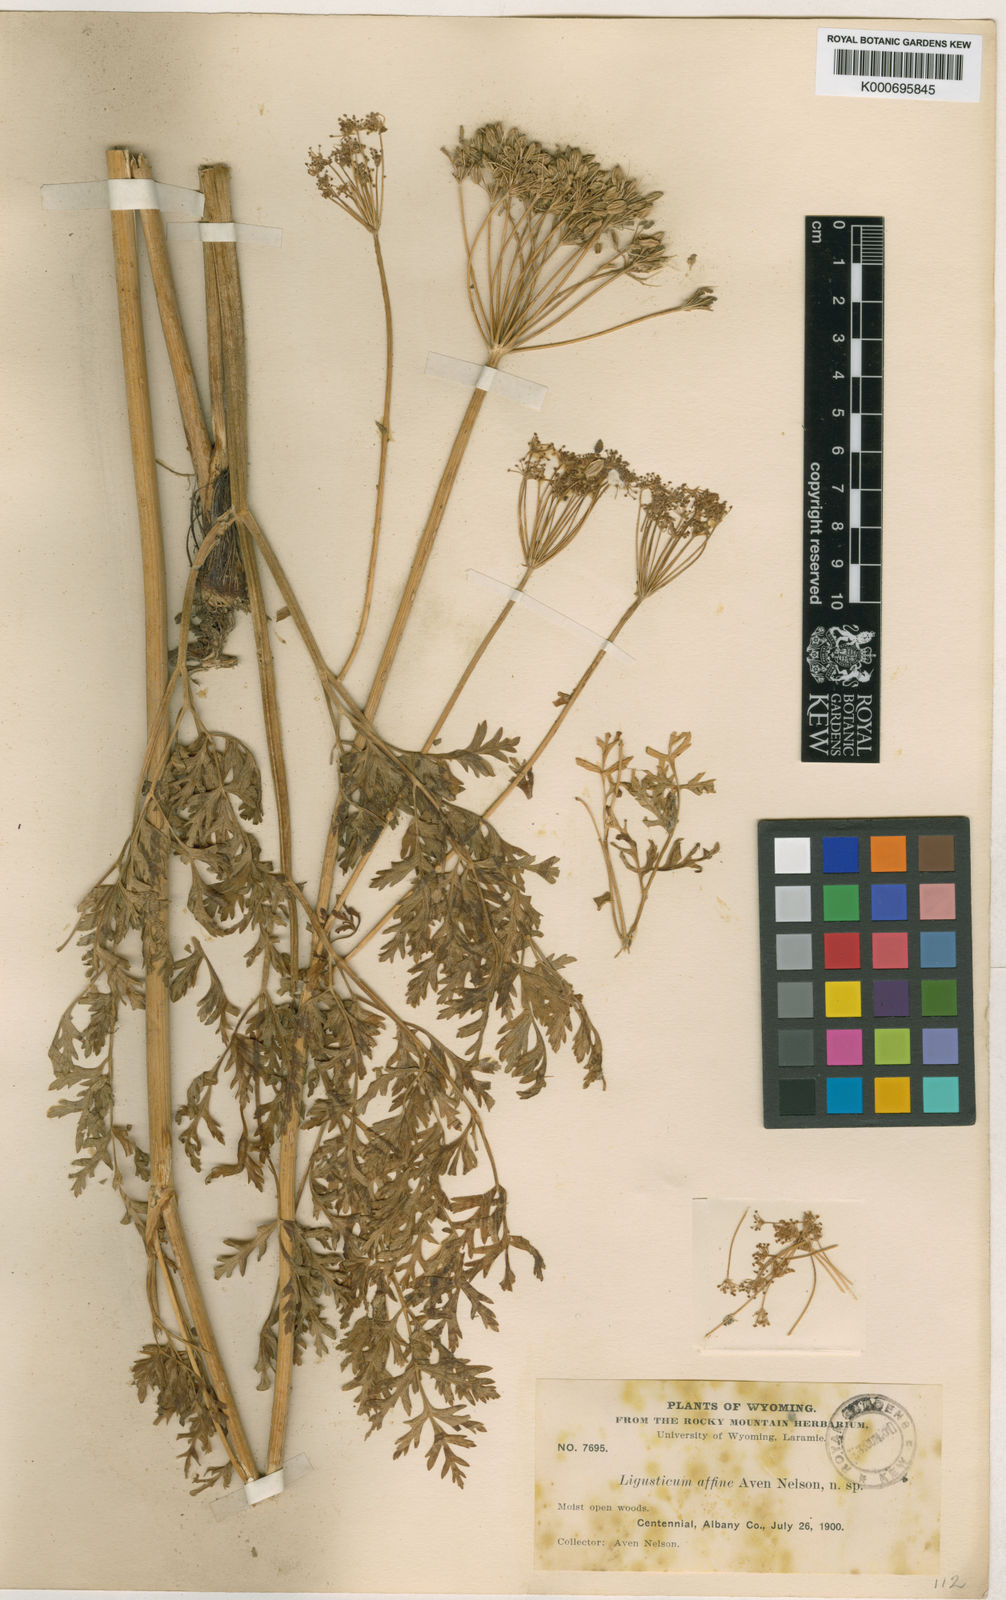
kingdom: Plantae
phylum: Tracheophyta
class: Magnoliopsida
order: Apiales
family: Apiaceae
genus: Ligusticum
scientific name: Ligusticum porteri
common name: Mountain lovage
